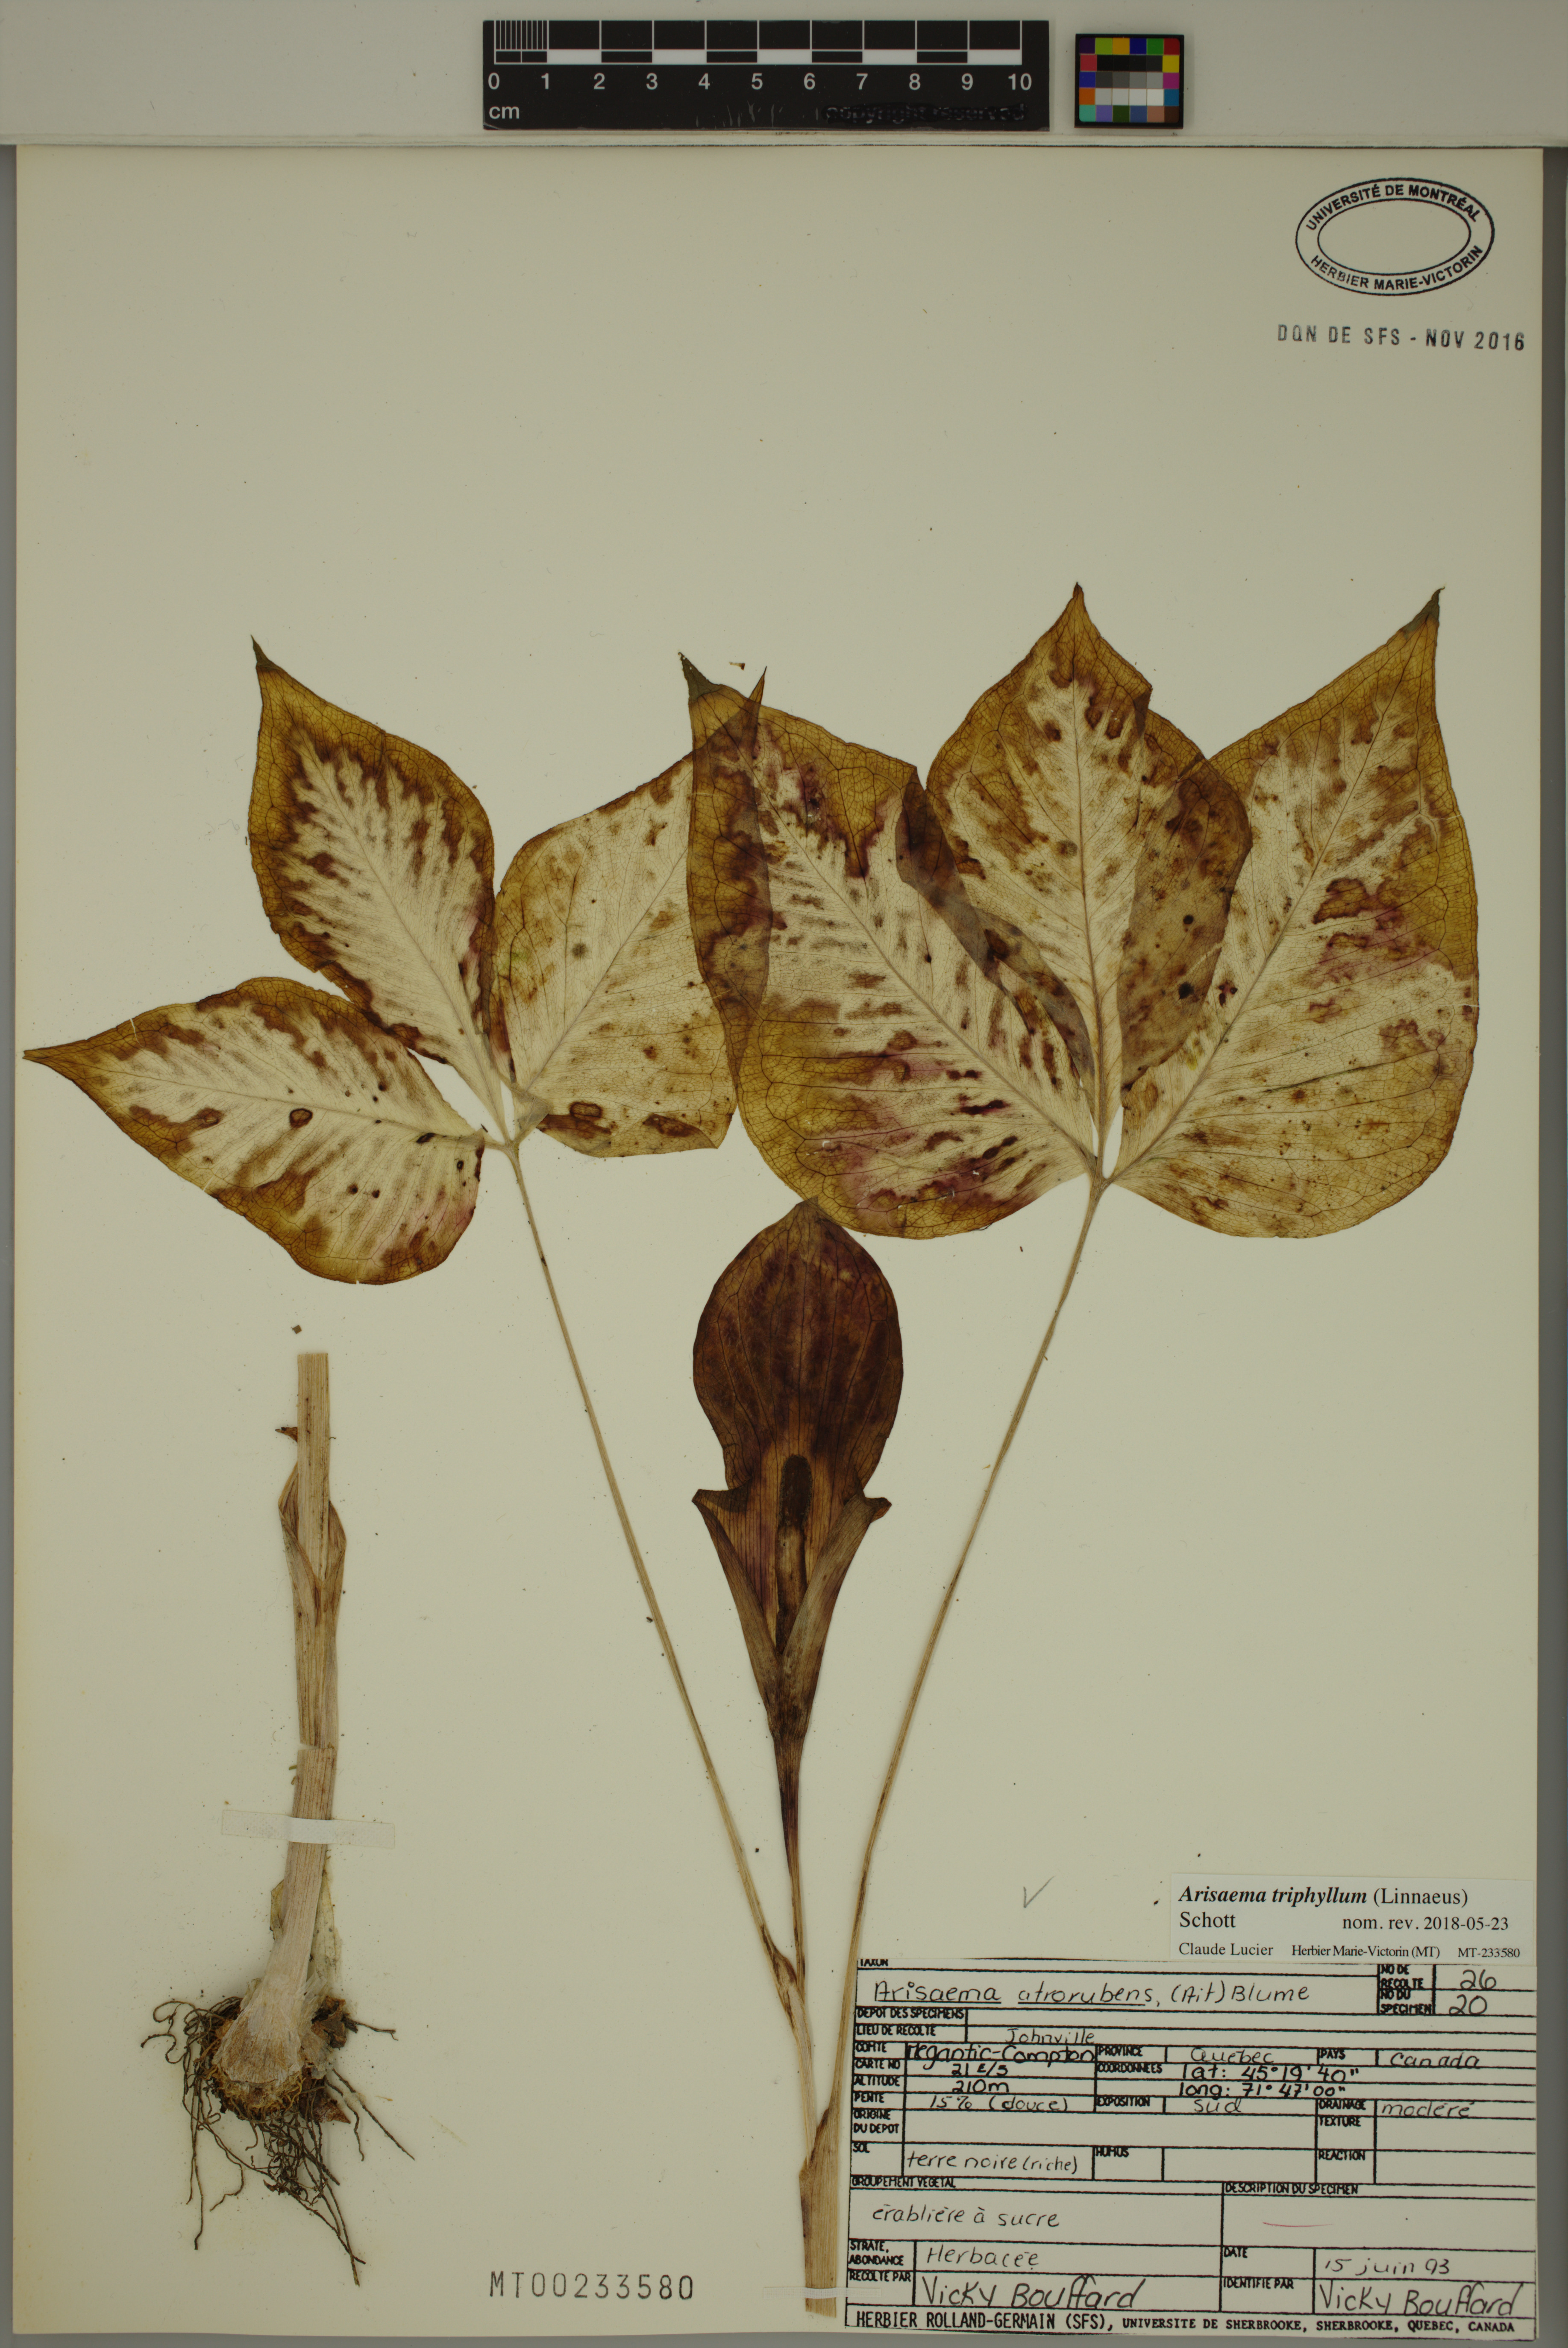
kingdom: Plantae
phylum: Tracheophyta
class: Liliopsida
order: Alismatales
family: Araceae
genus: Arisaema
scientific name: Arisaema triphyllum
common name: Jack-in-the-pulpit
